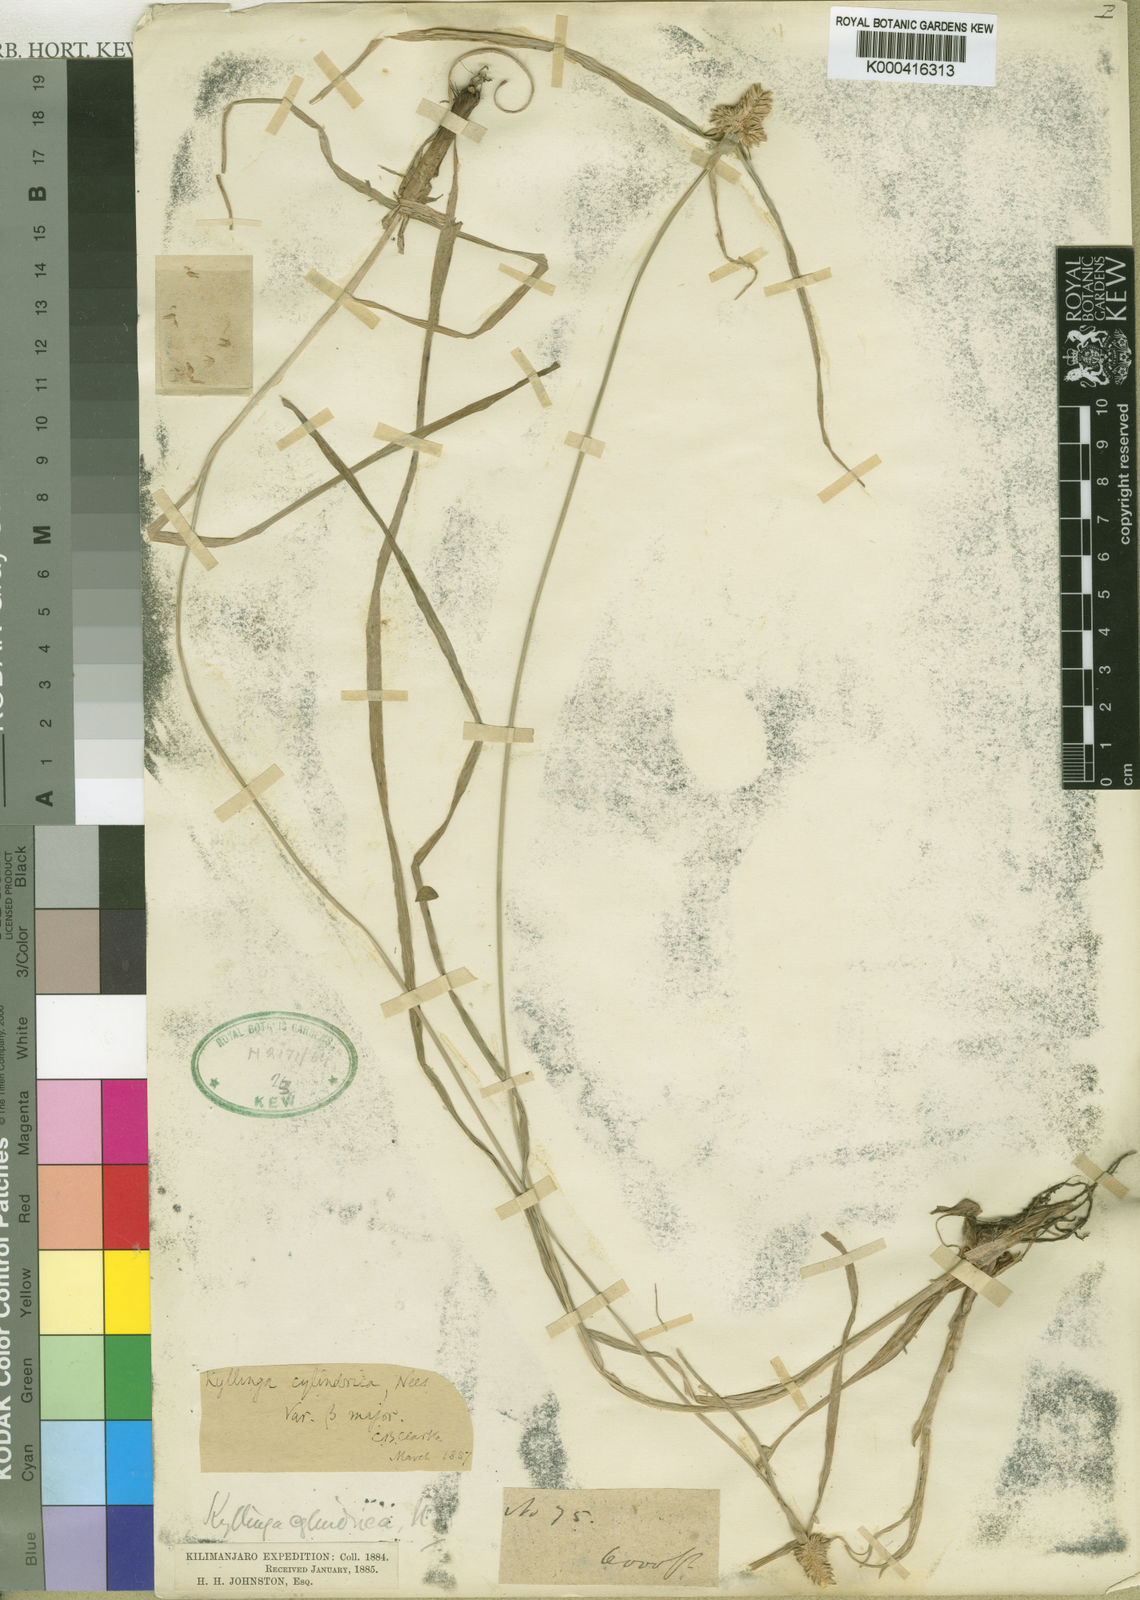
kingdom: Plantae
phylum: Tracheophyta
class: Liliopsida
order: Poales
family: Cyperaceae
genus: Cyperus
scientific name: Cyperus sesquiflorus
